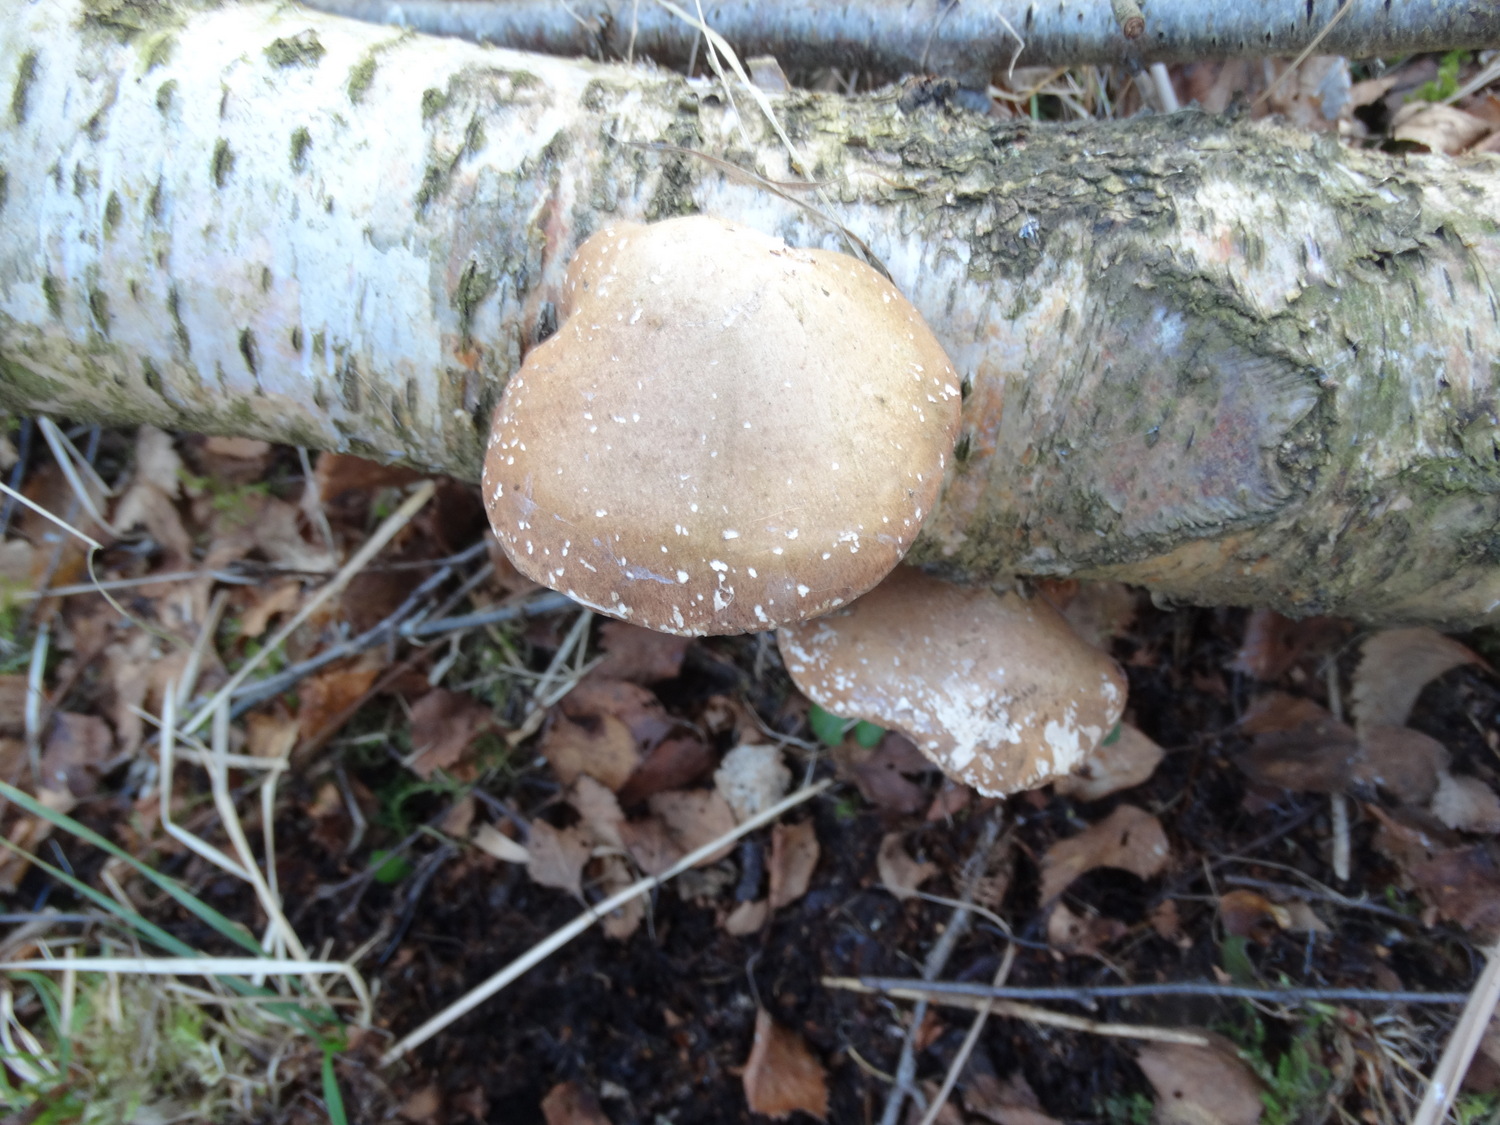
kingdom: Fungi
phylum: Basidiomycota
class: Agaricomycetes
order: Polyporales
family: Fomitopsidaceae
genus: Fomitopsis
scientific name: Fomitopsis betulina
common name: birkeporesvamp
